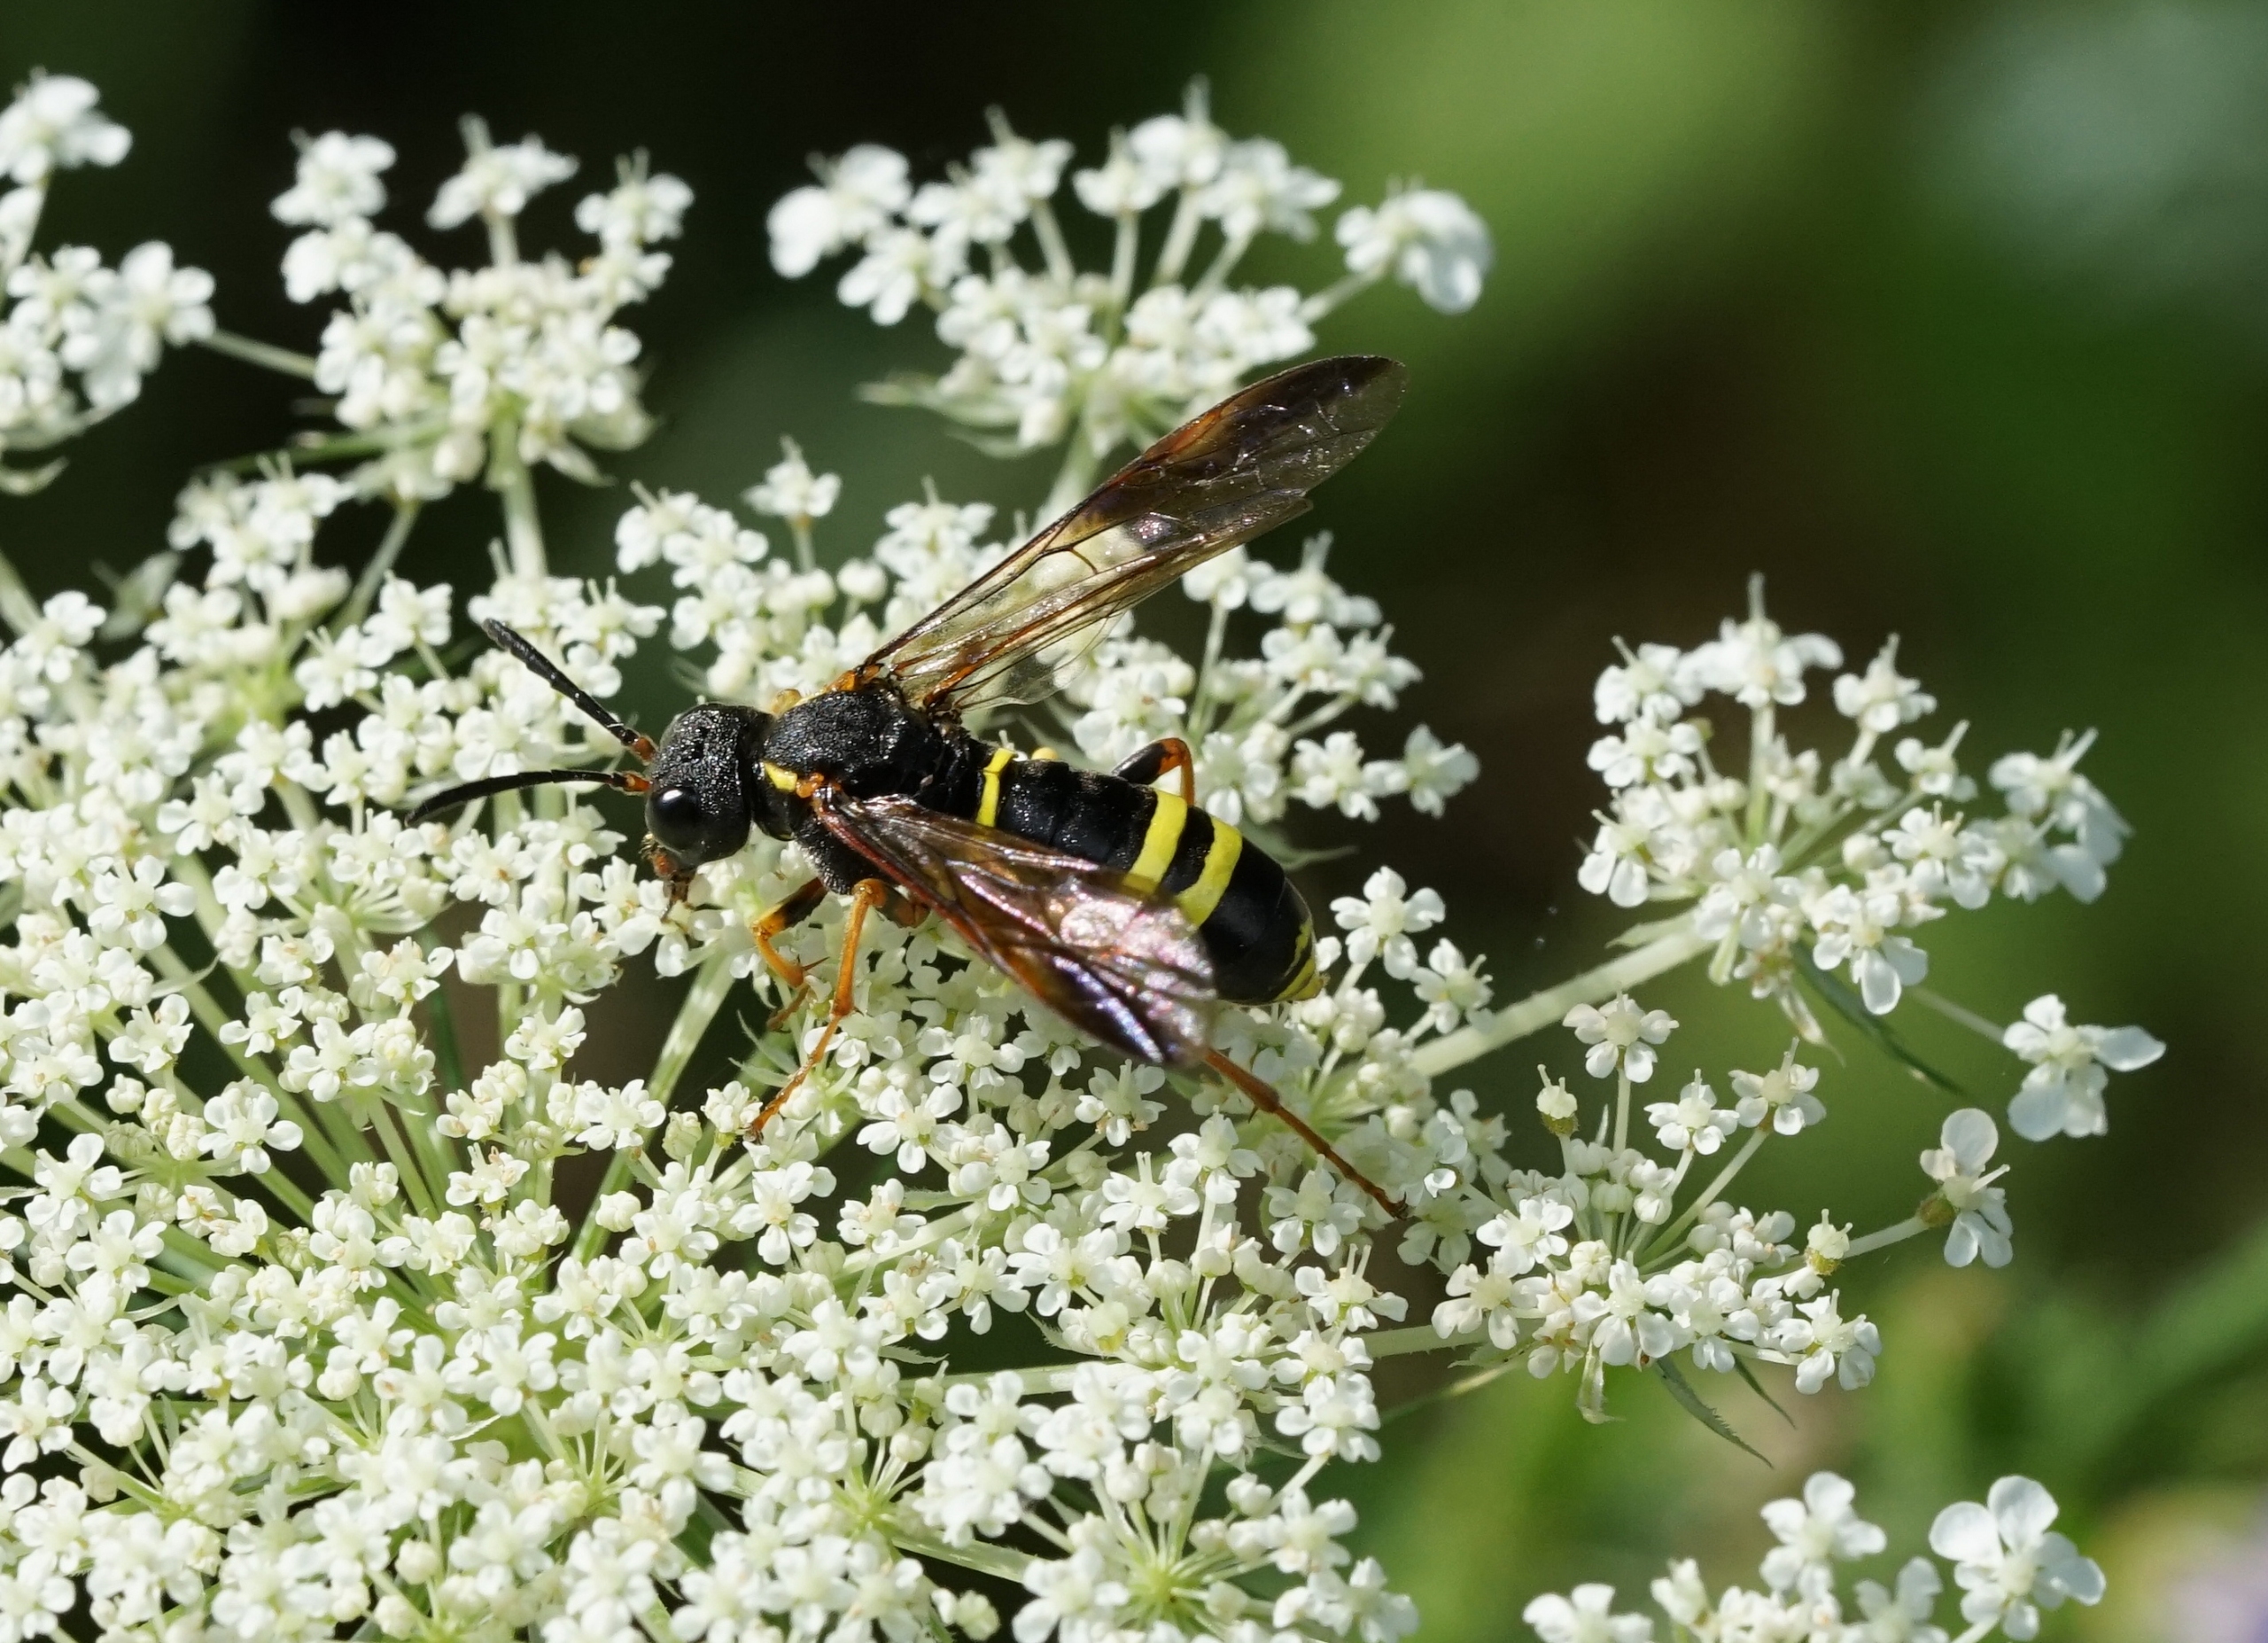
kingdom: Animalia
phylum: Arthropoda
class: Insecta
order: Hymenoptera
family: Tenthredinidae
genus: Tenthredo
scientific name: Tenthredo vespa
